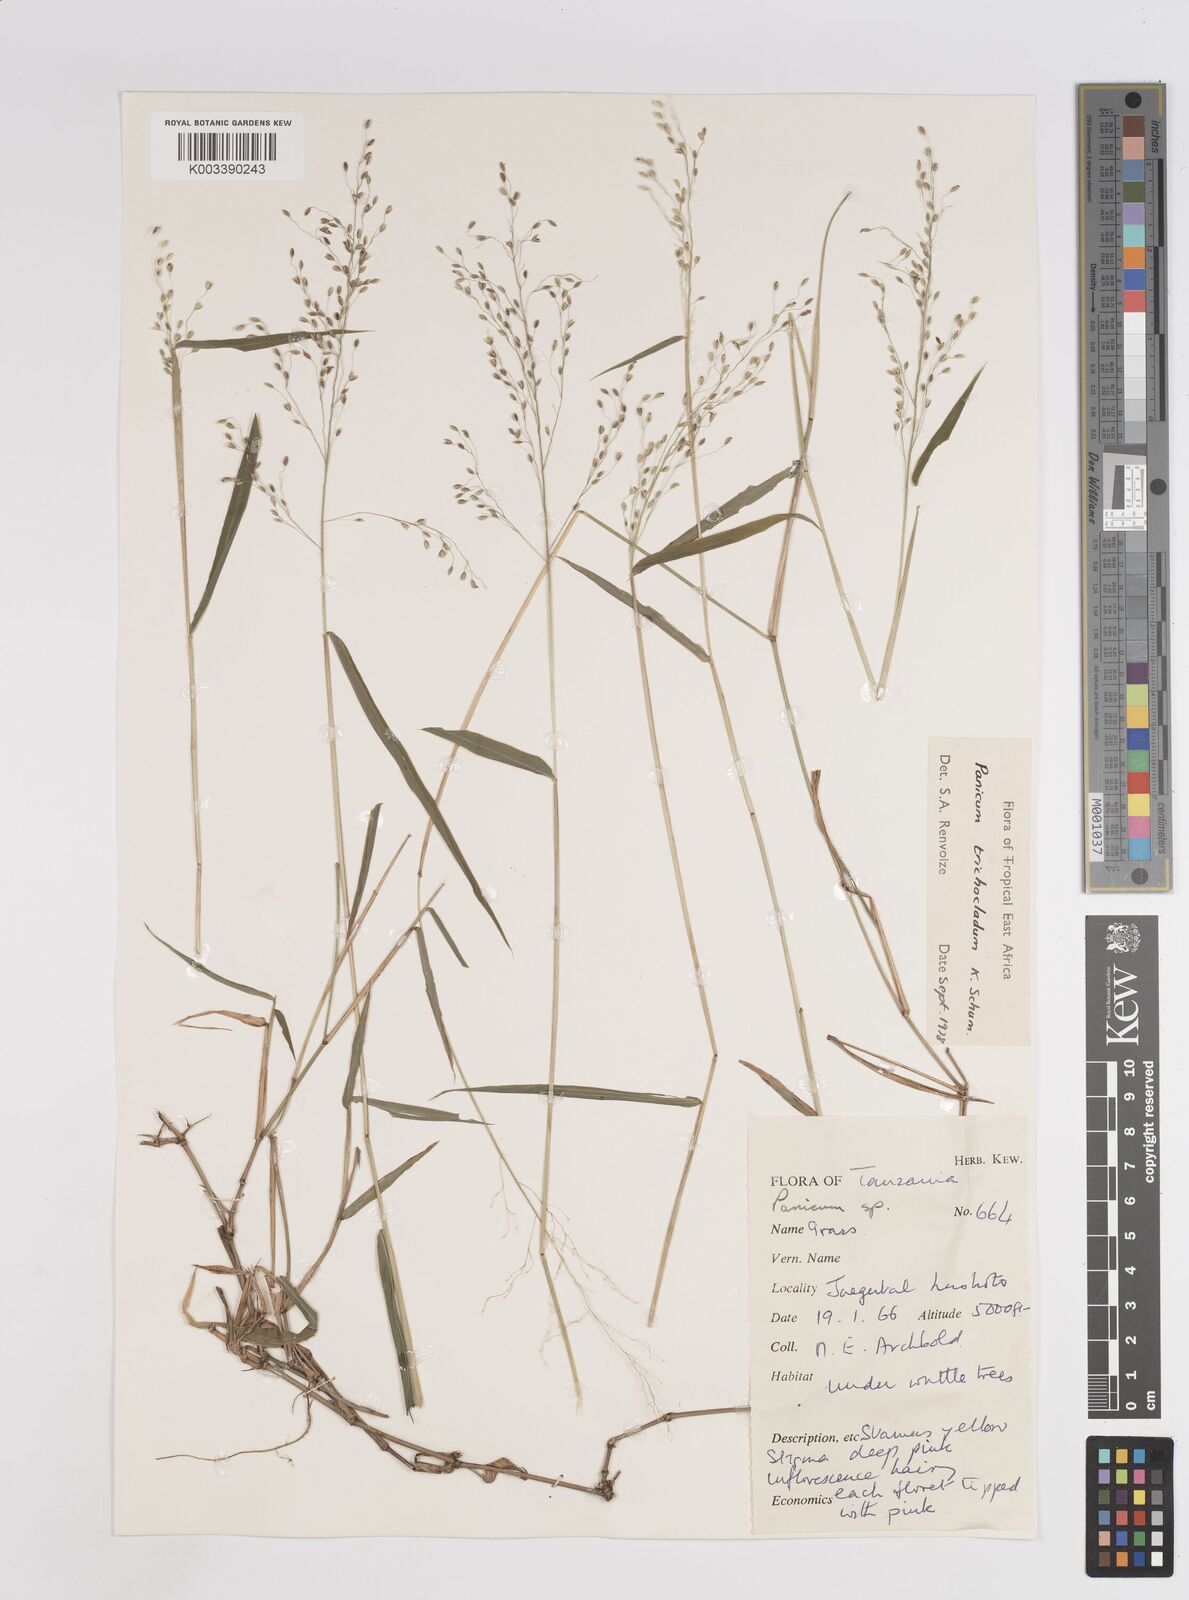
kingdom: Plantae
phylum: Tracheophyta
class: Liliopsida
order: Poales
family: Poaceae
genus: Panicum
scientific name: Panicum trichocladum
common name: Donkey grass
